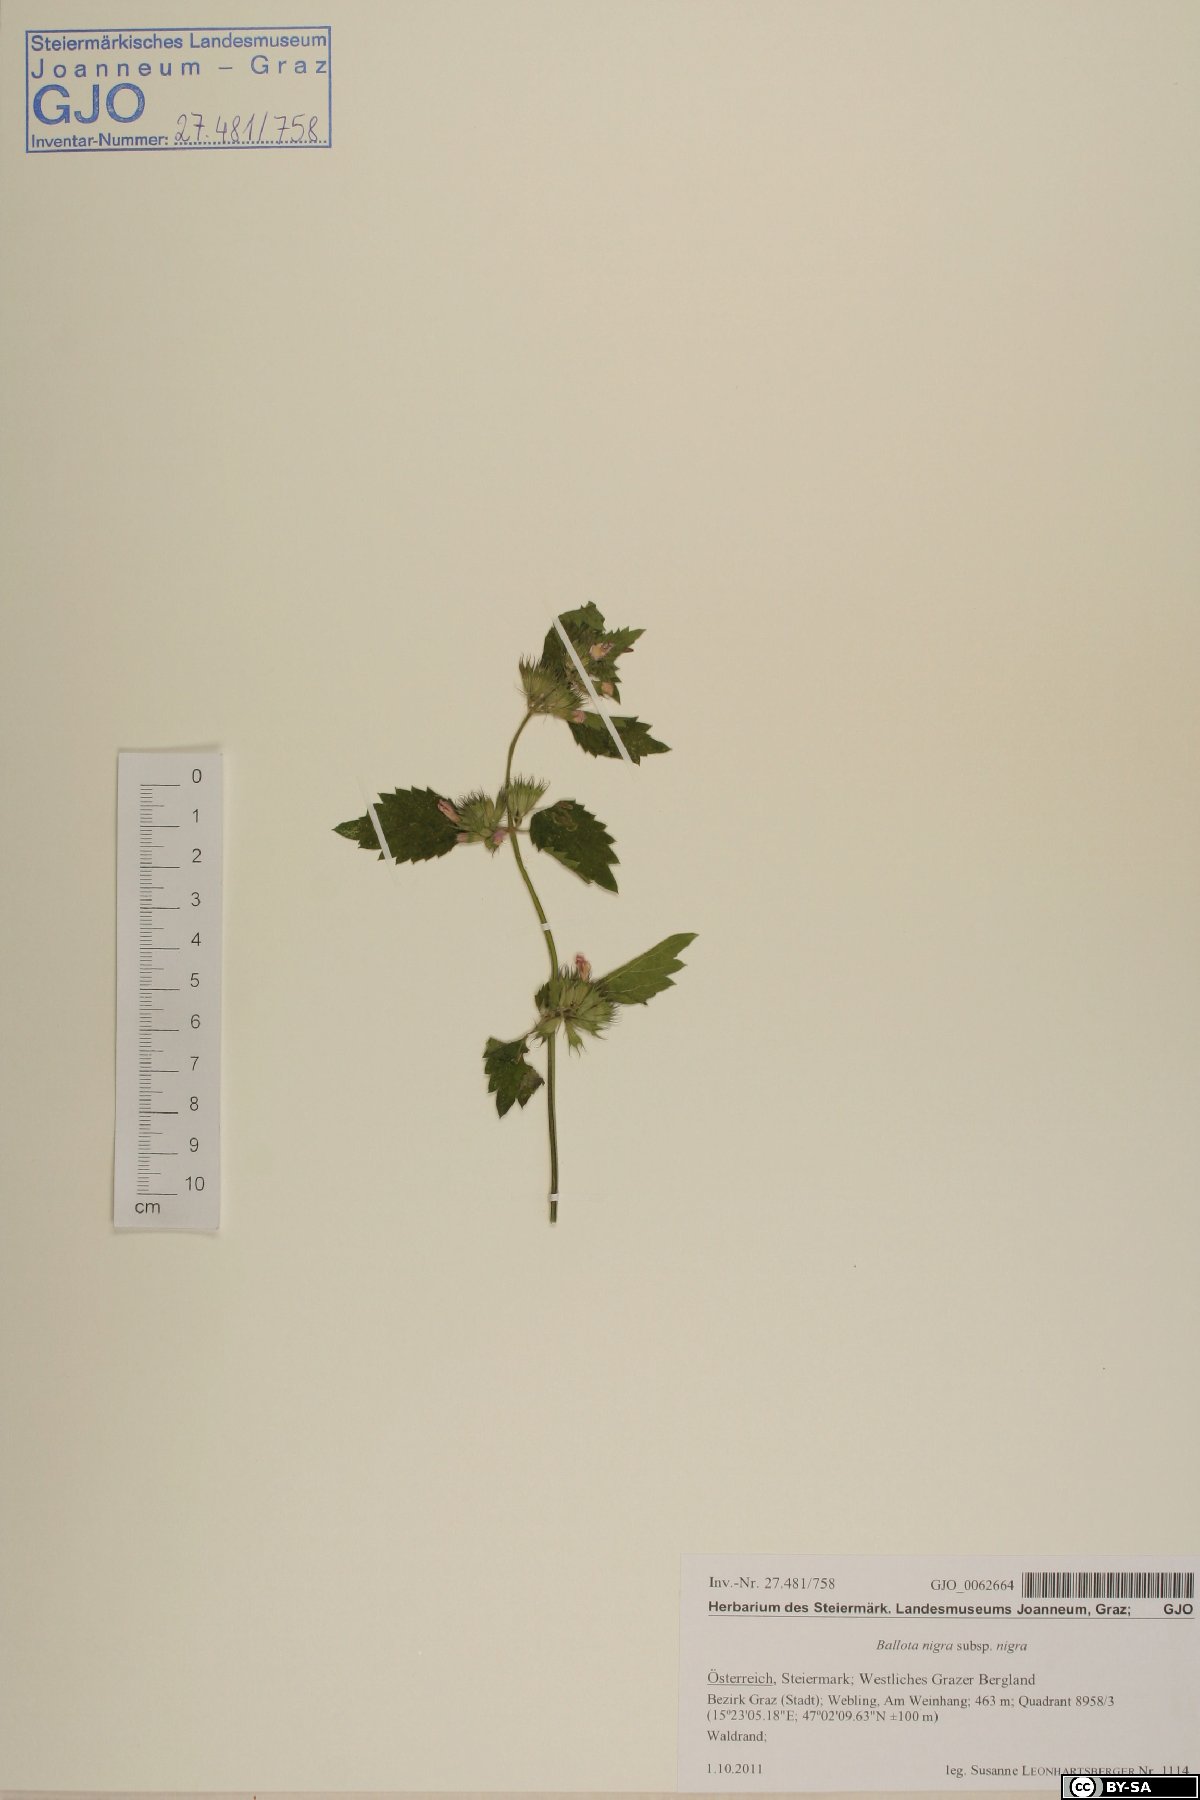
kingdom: Plantae
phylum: Tracheophyta
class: Magnoliopsida
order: Lamiales
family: Lamiaceae
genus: Ballota
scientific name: Ballota nigra
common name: Black horehound
